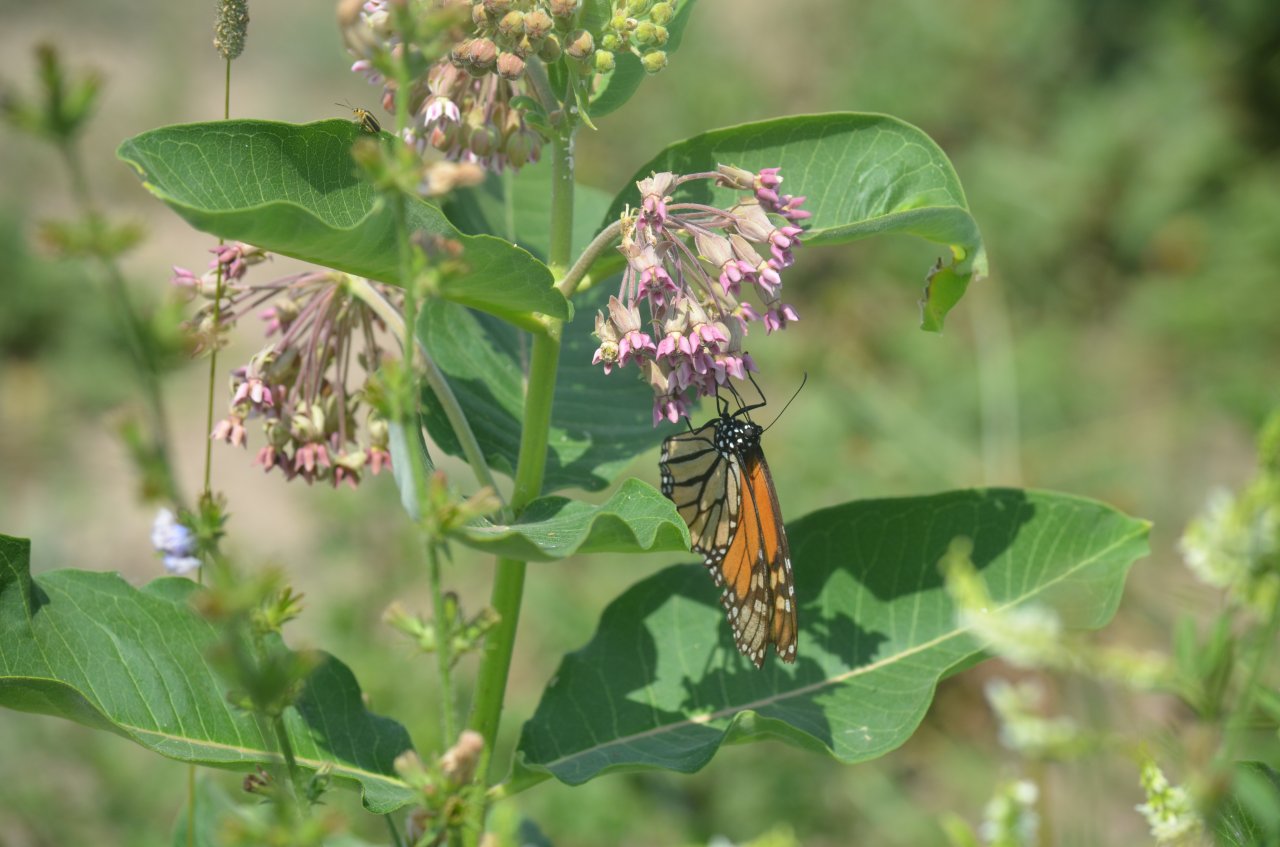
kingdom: Animalia
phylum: Arthropoda
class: Insecta
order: Lepidoptera
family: Nymphalidae
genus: Danaus
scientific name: Danaus plexippus
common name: Monarch
